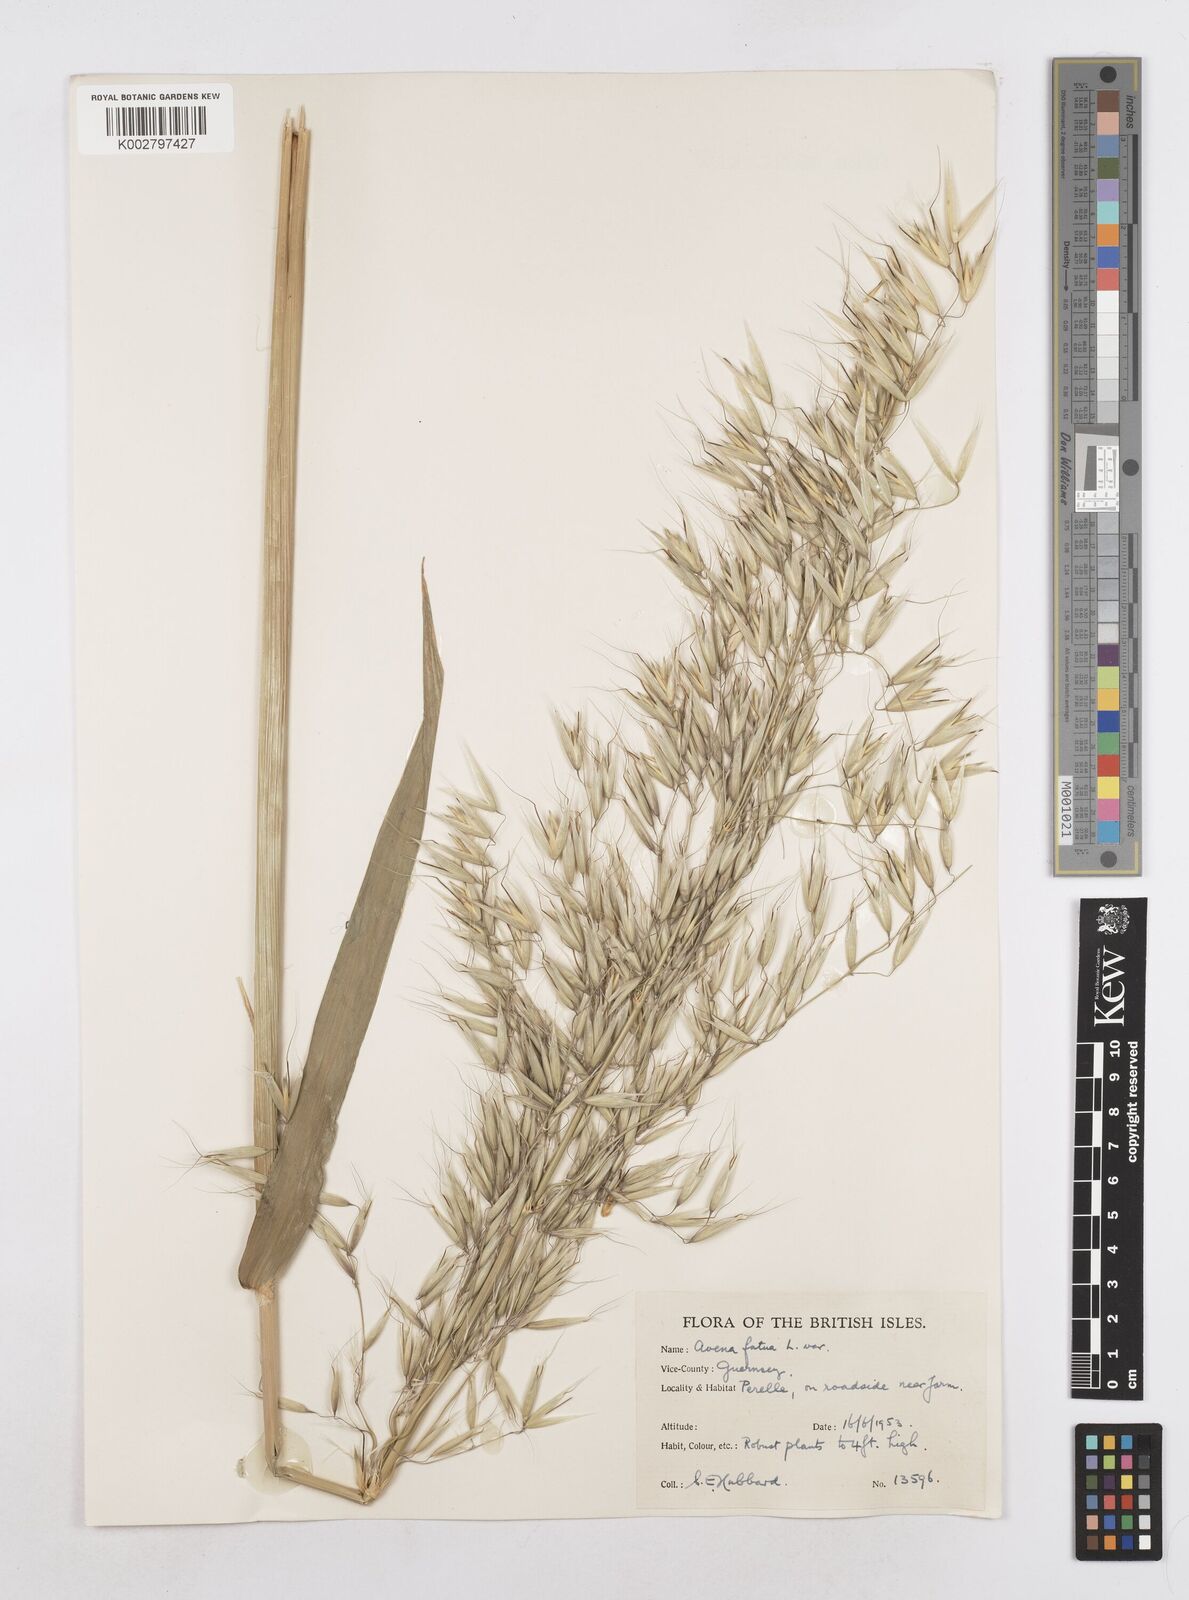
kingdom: Plantae
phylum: Tracheophyta
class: Liliopsida
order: Poales
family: Poaceae
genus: Avena
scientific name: Avena fatua
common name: Wild oat
